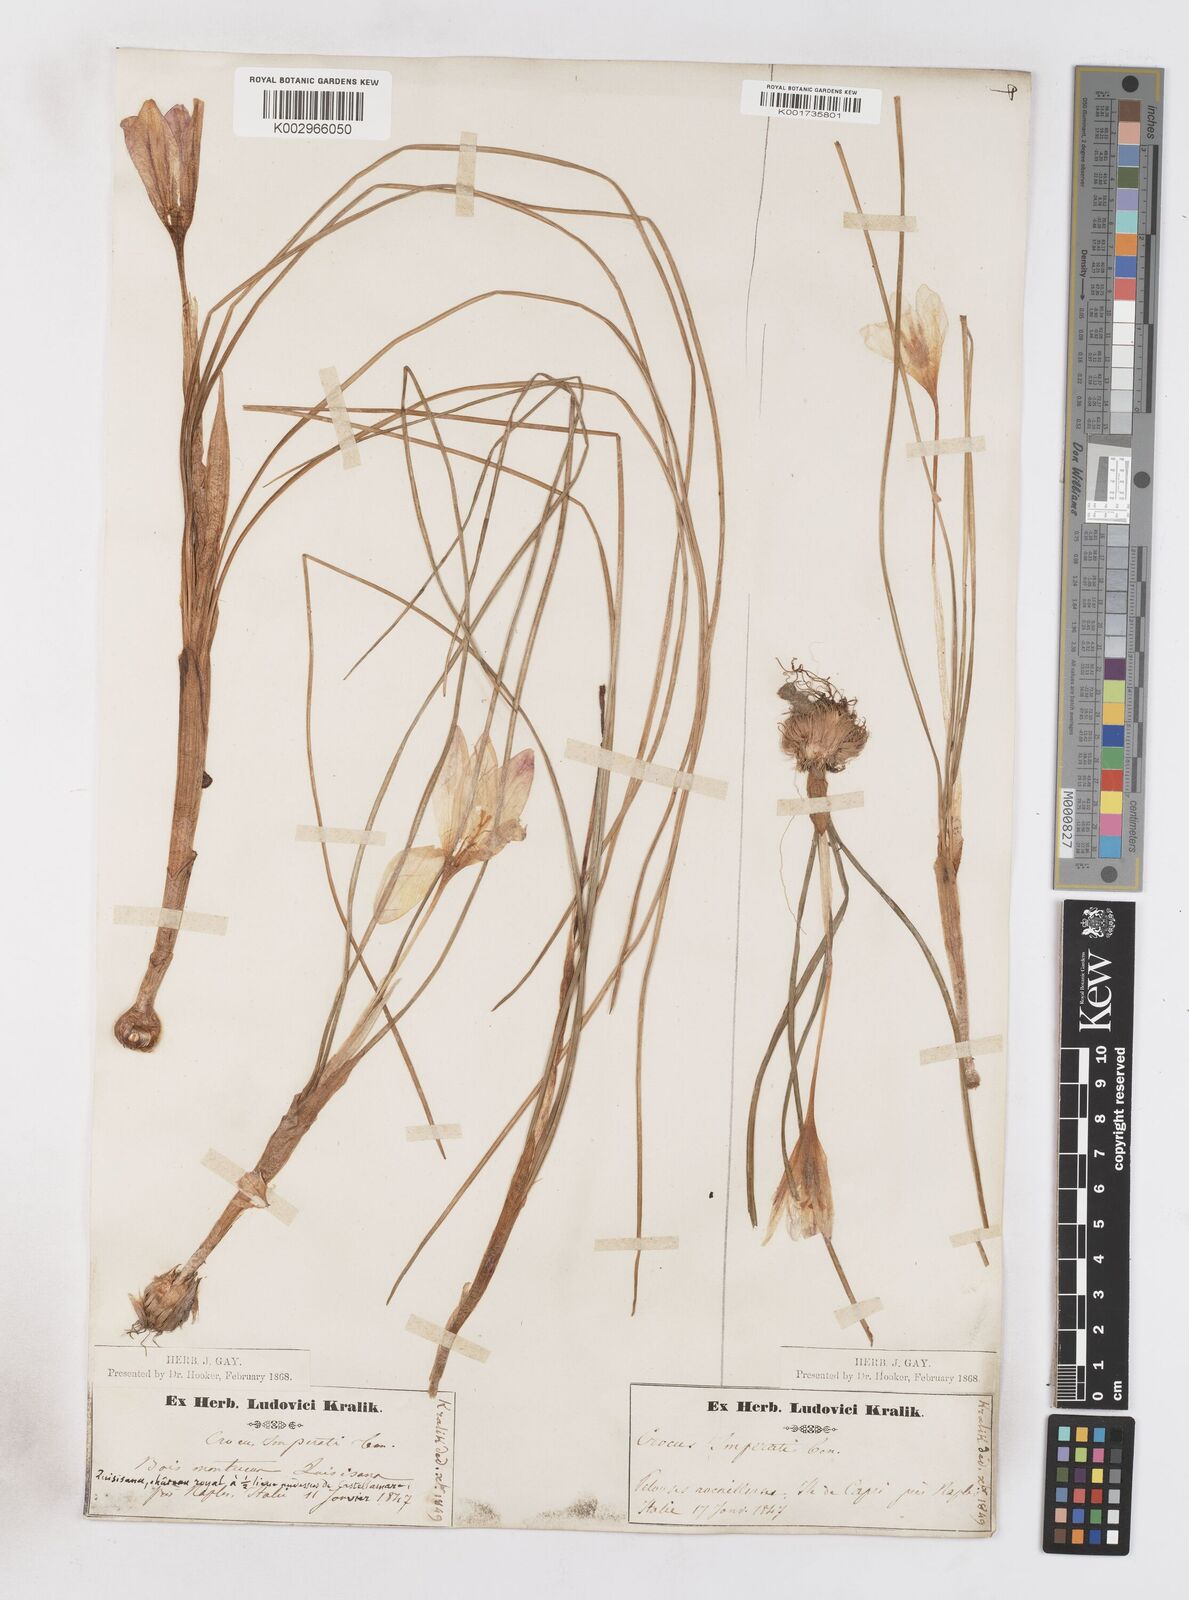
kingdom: Plantae
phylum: Tracheophyta
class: Liliopsida
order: Asparagales
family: Iridaceae
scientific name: Iridaceae
